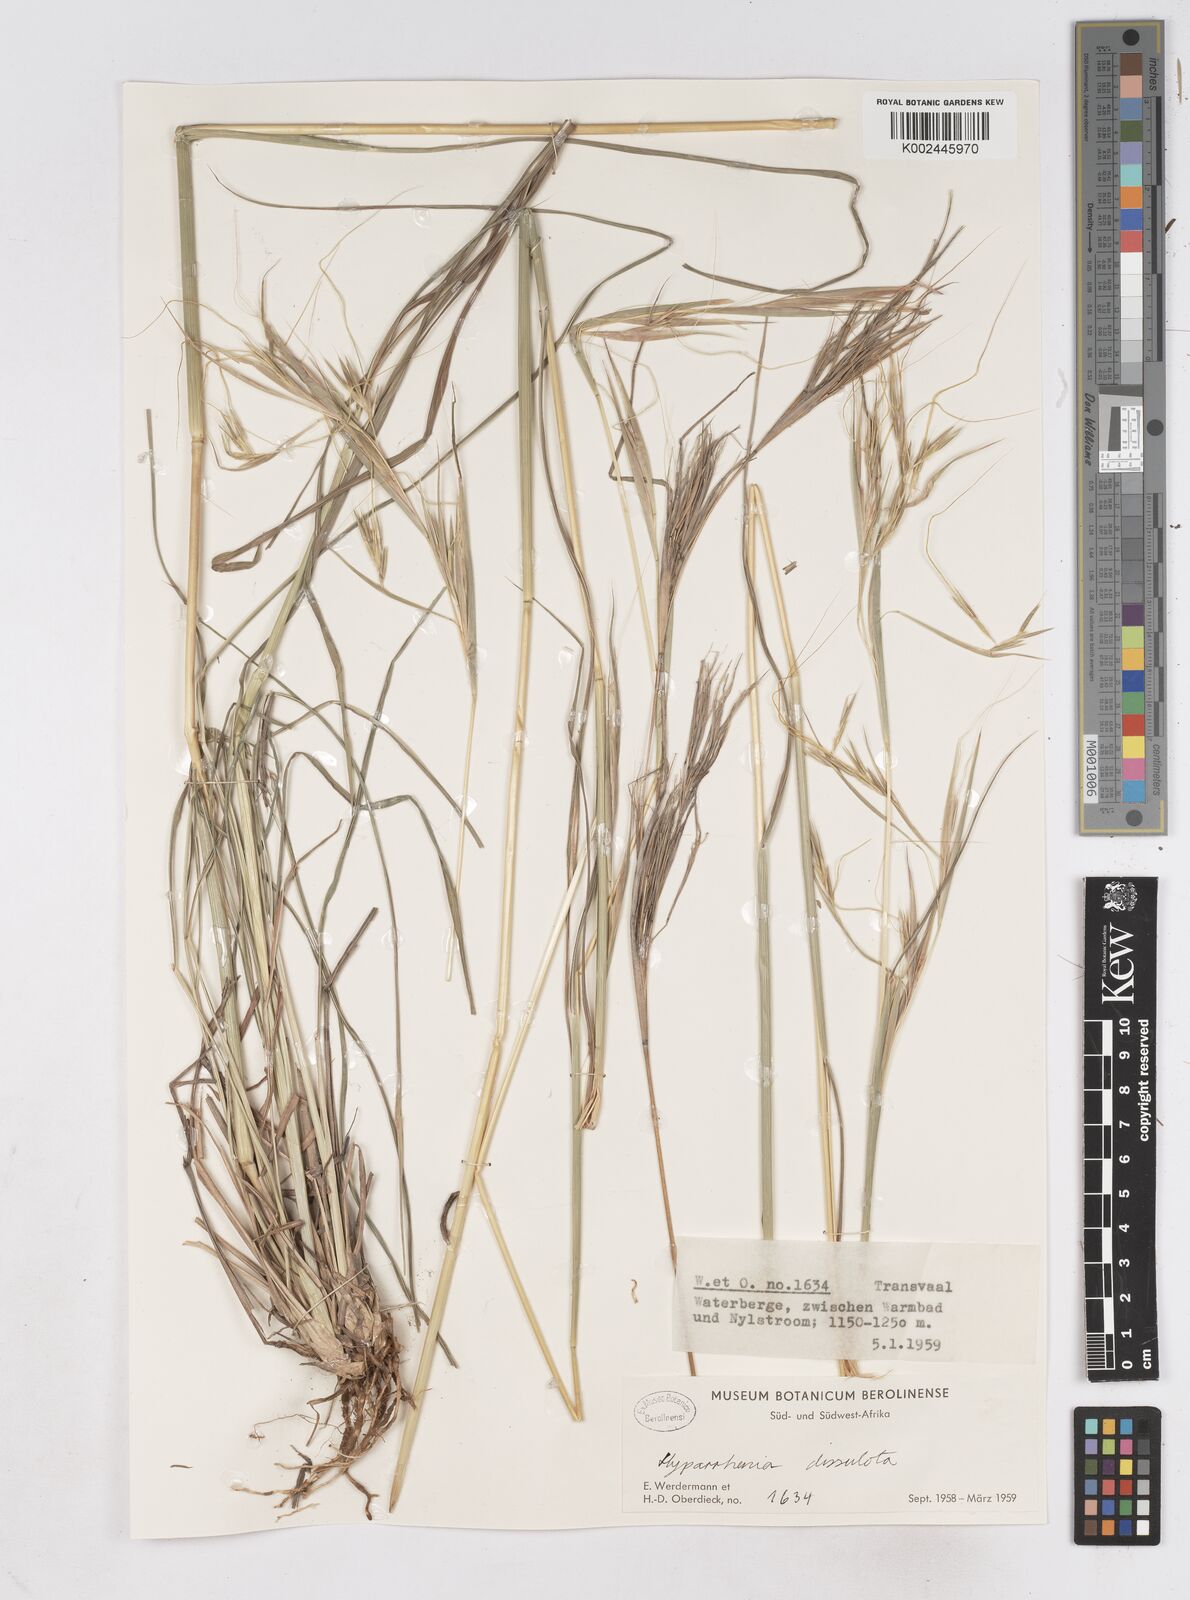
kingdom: Plantae
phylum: Tracheophyta
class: Liliopsida
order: Poales
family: Poaceae
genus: Hyperthelia
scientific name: Hyperthelia dissoluta
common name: Yellow thatching grass
